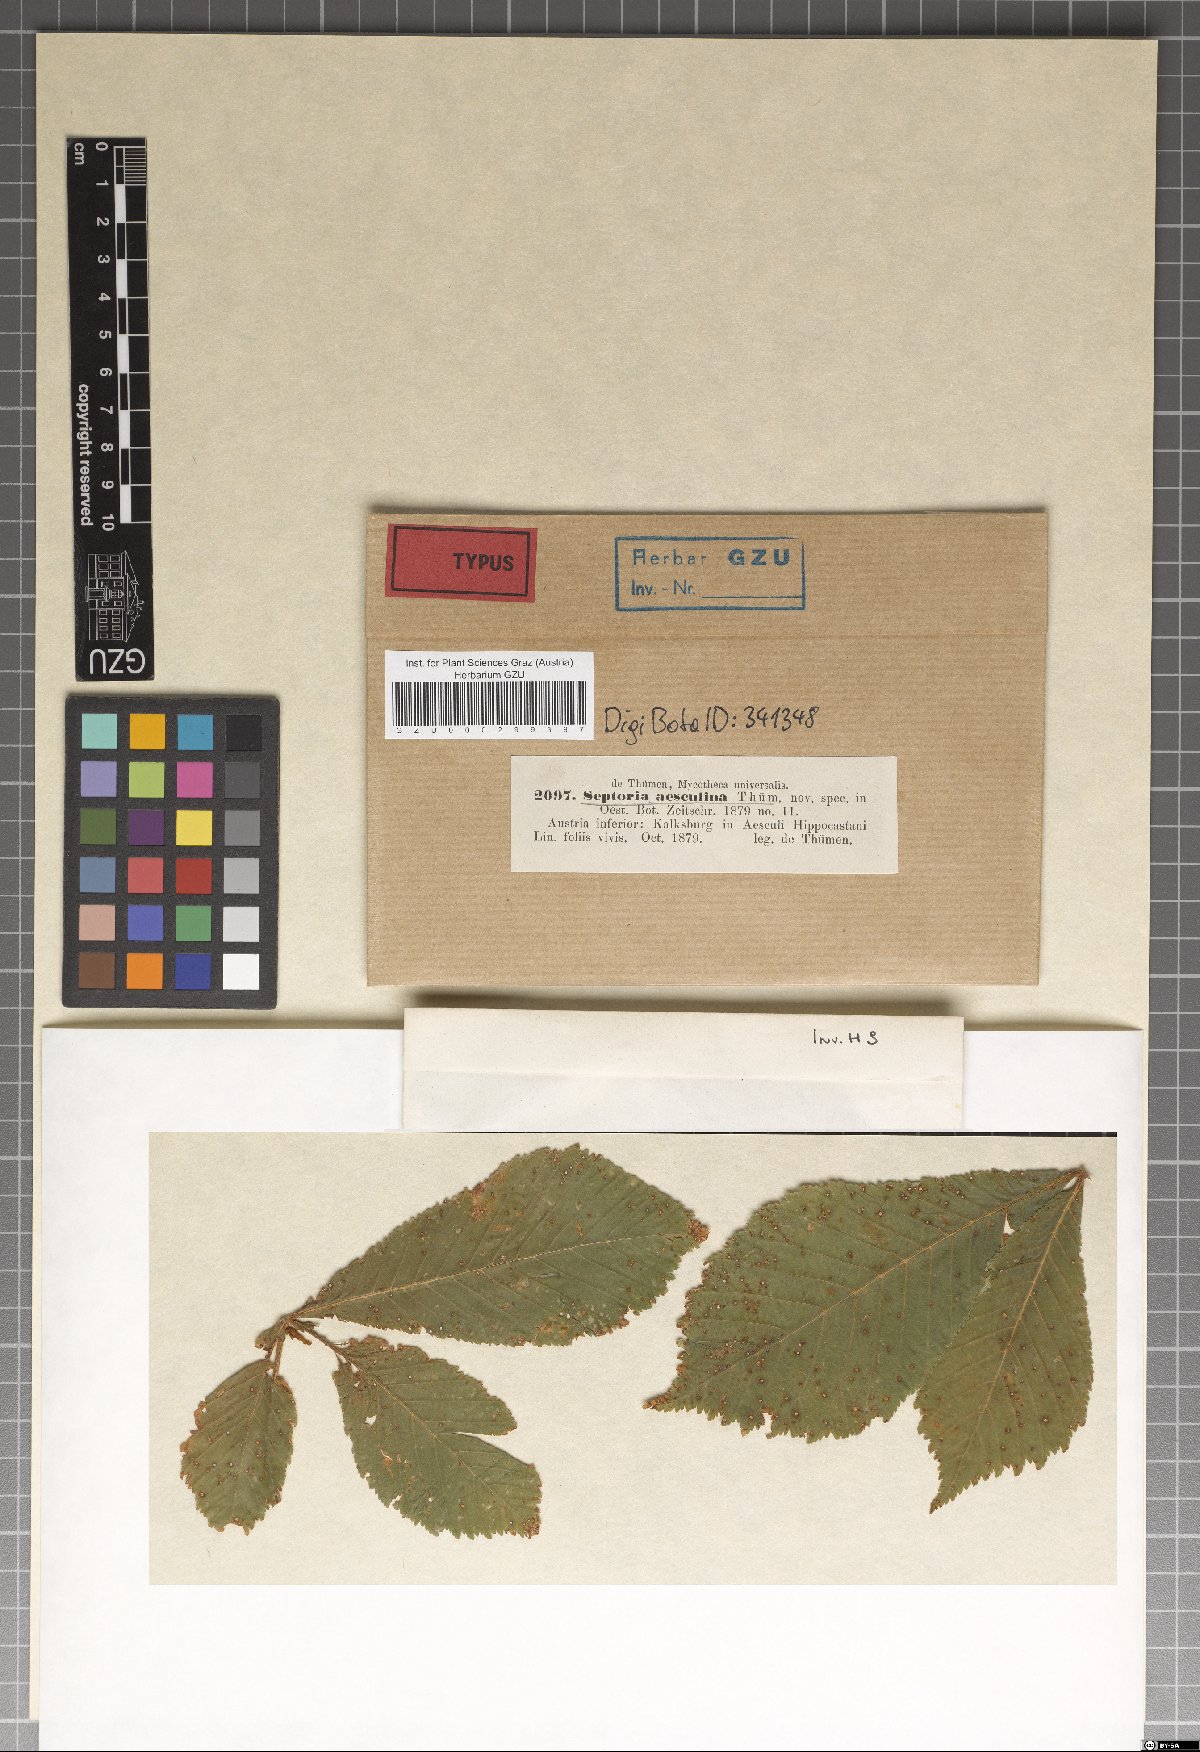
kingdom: Fungi
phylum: Ascomycota
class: Dothideomycetes
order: Mycosphaerellales
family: Mycosphaerellaceae
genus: Septoria
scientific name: Septoria aesculi
